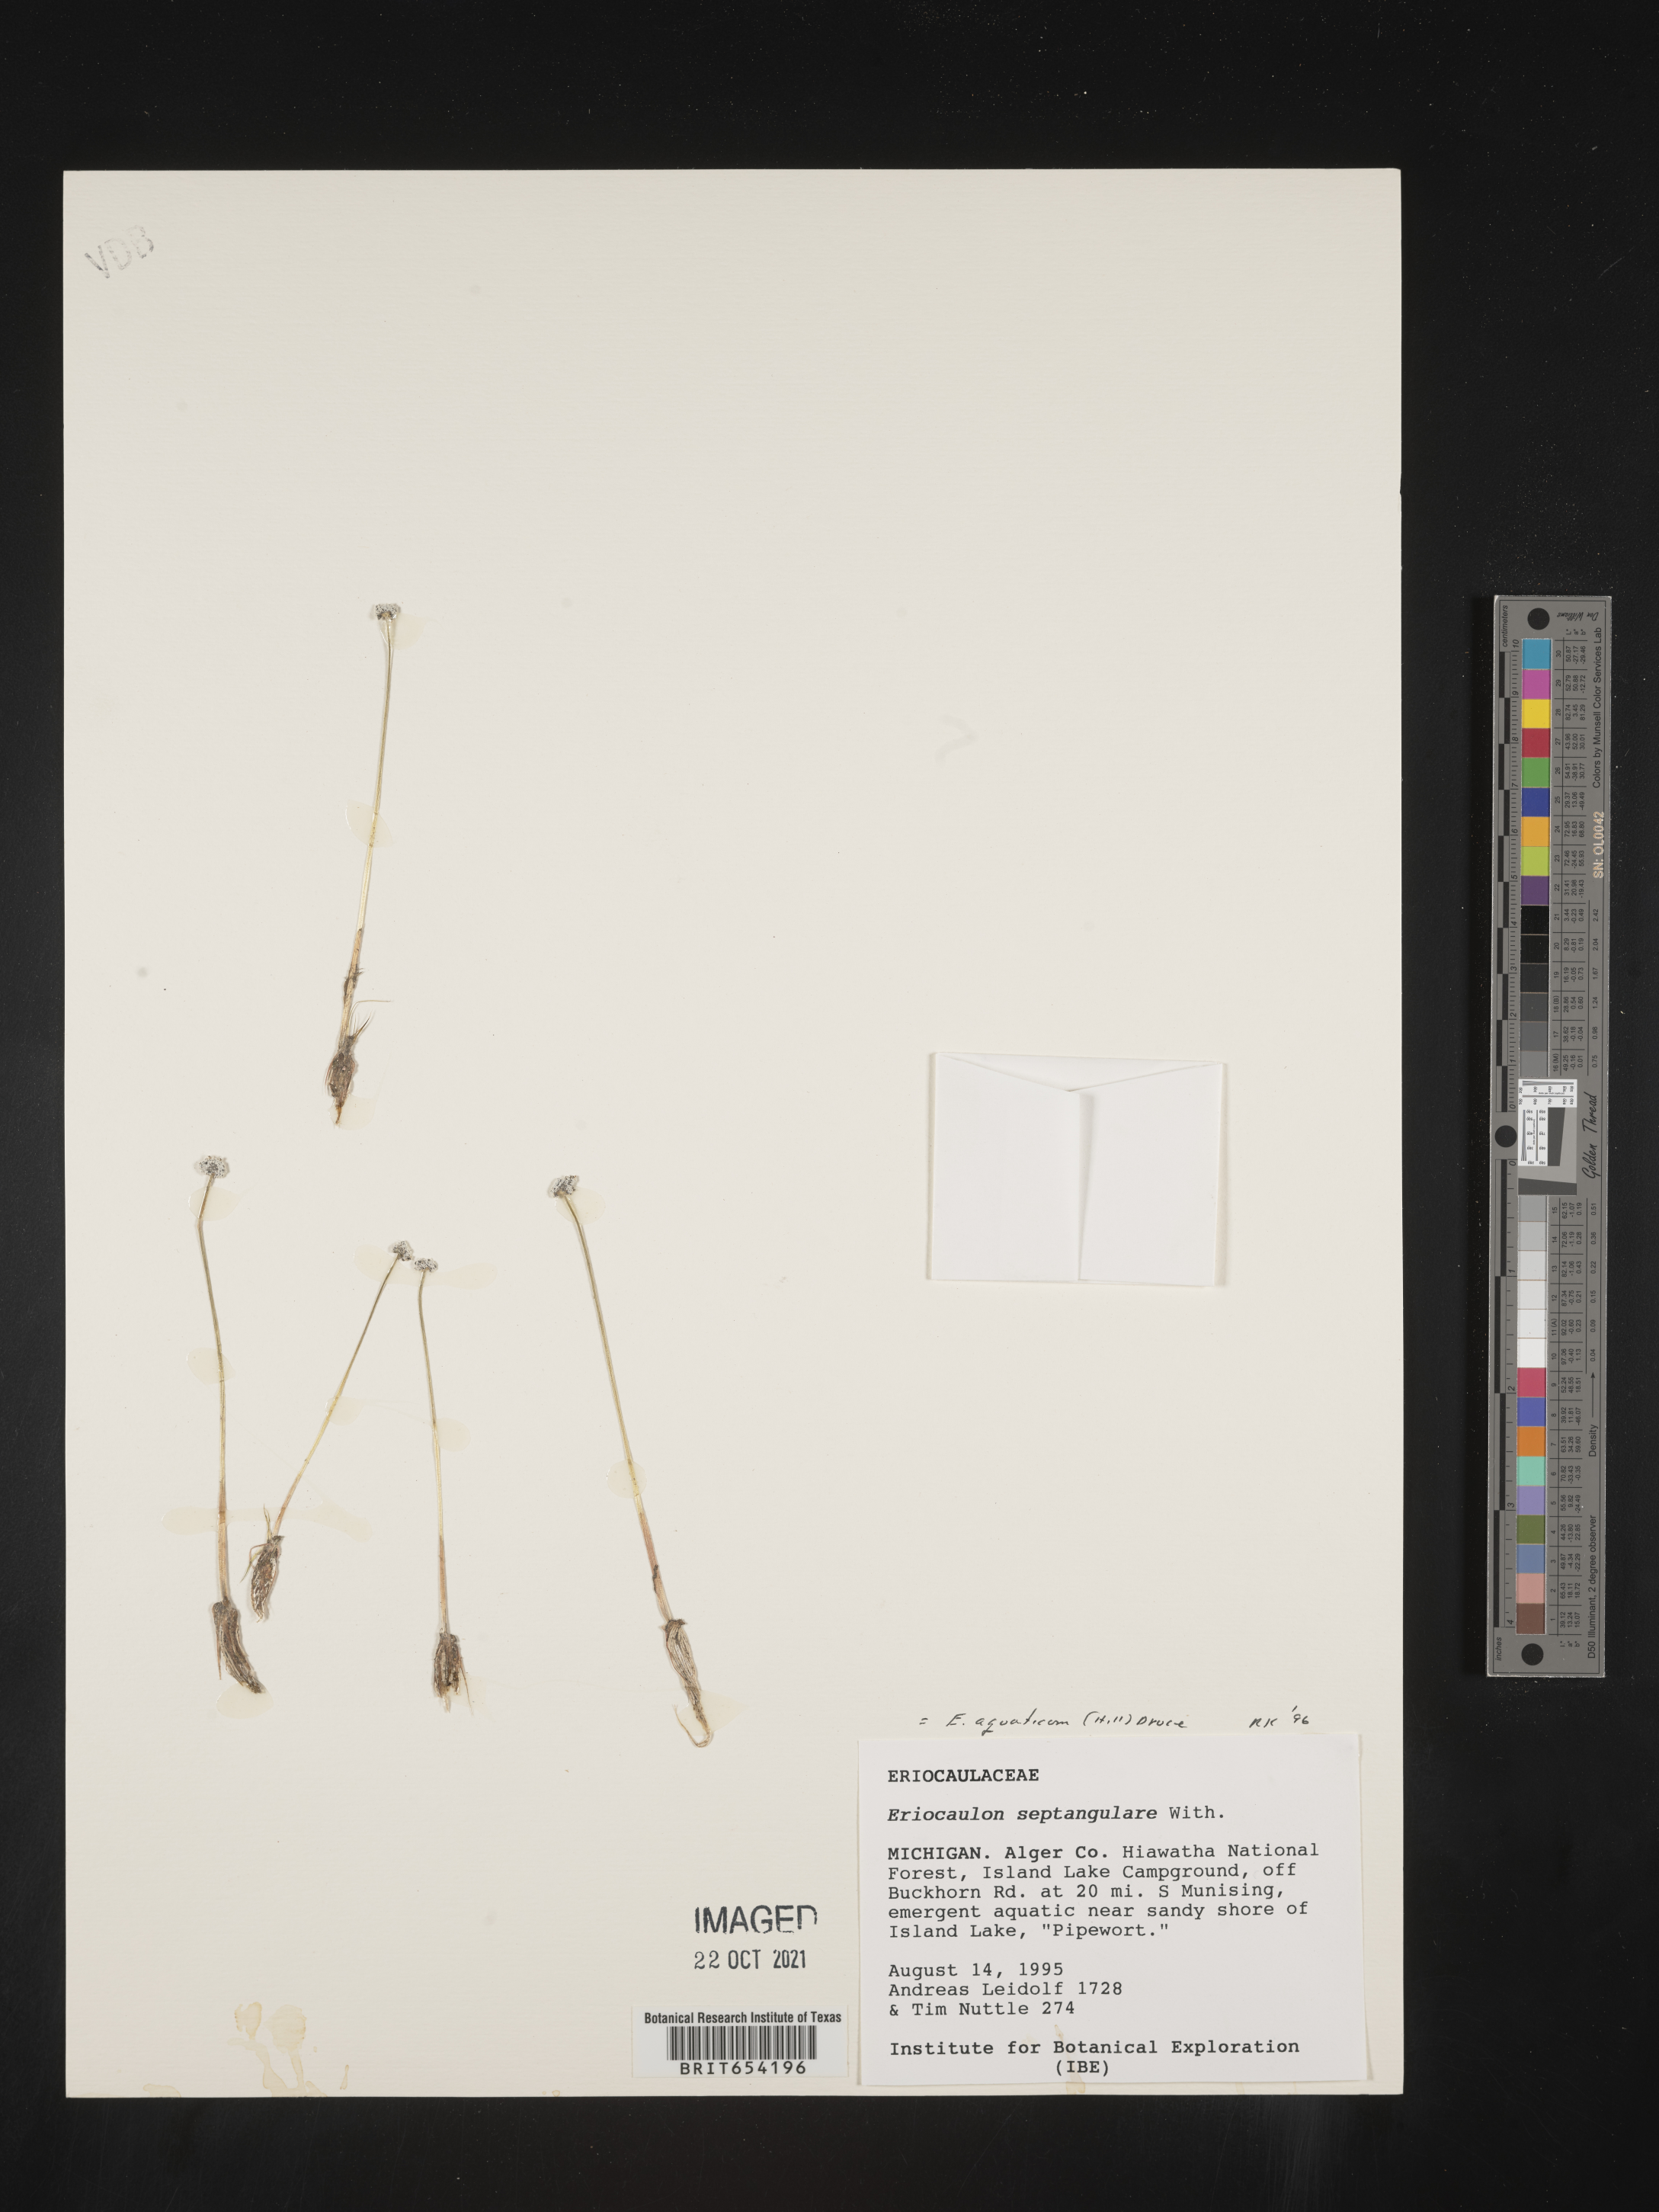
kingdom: Plantae
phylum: Tracheophyta
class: Liliopsida
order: Poales
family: Eriocaulaceae
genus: Eriocaulon
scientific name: Eriocaulon aquaticum
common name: Pipewort
